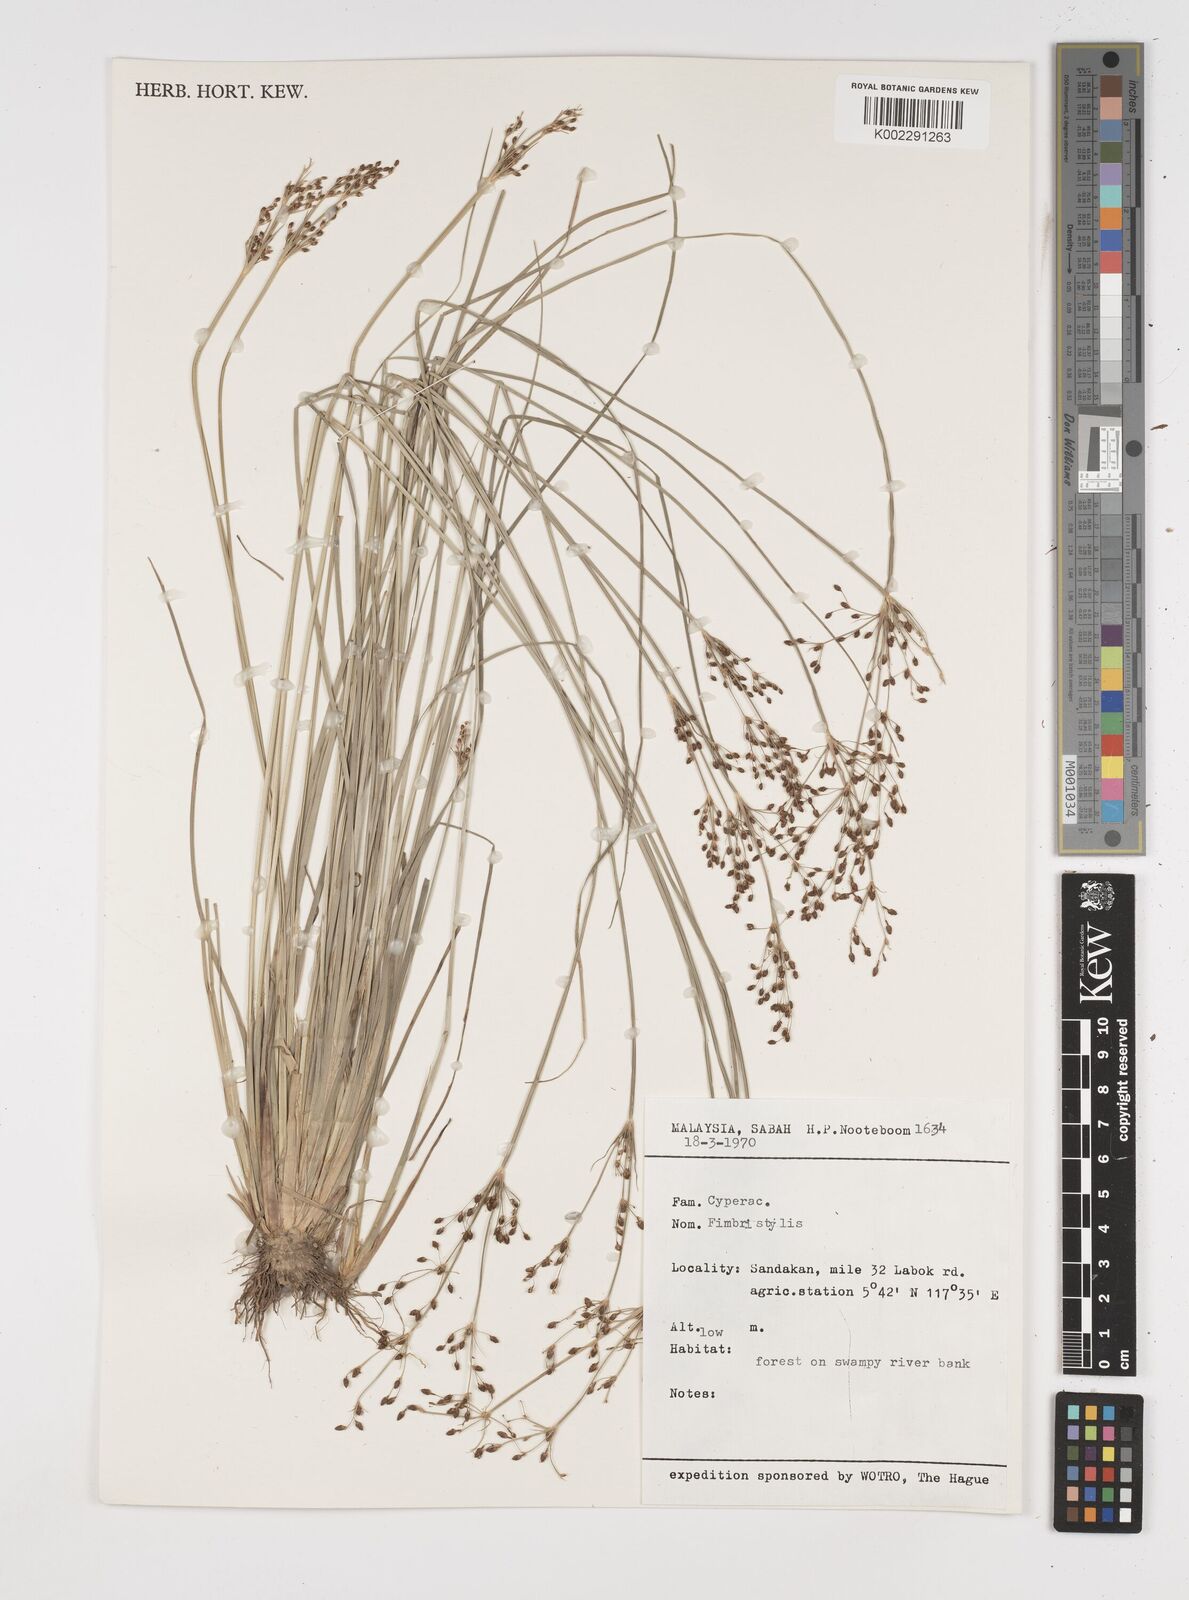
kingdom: Plantae
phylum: Tracheophyta
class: Liliopsida
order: Poales
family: Cyperaceae
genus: Fimbristylis
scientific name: Fimbristylis
